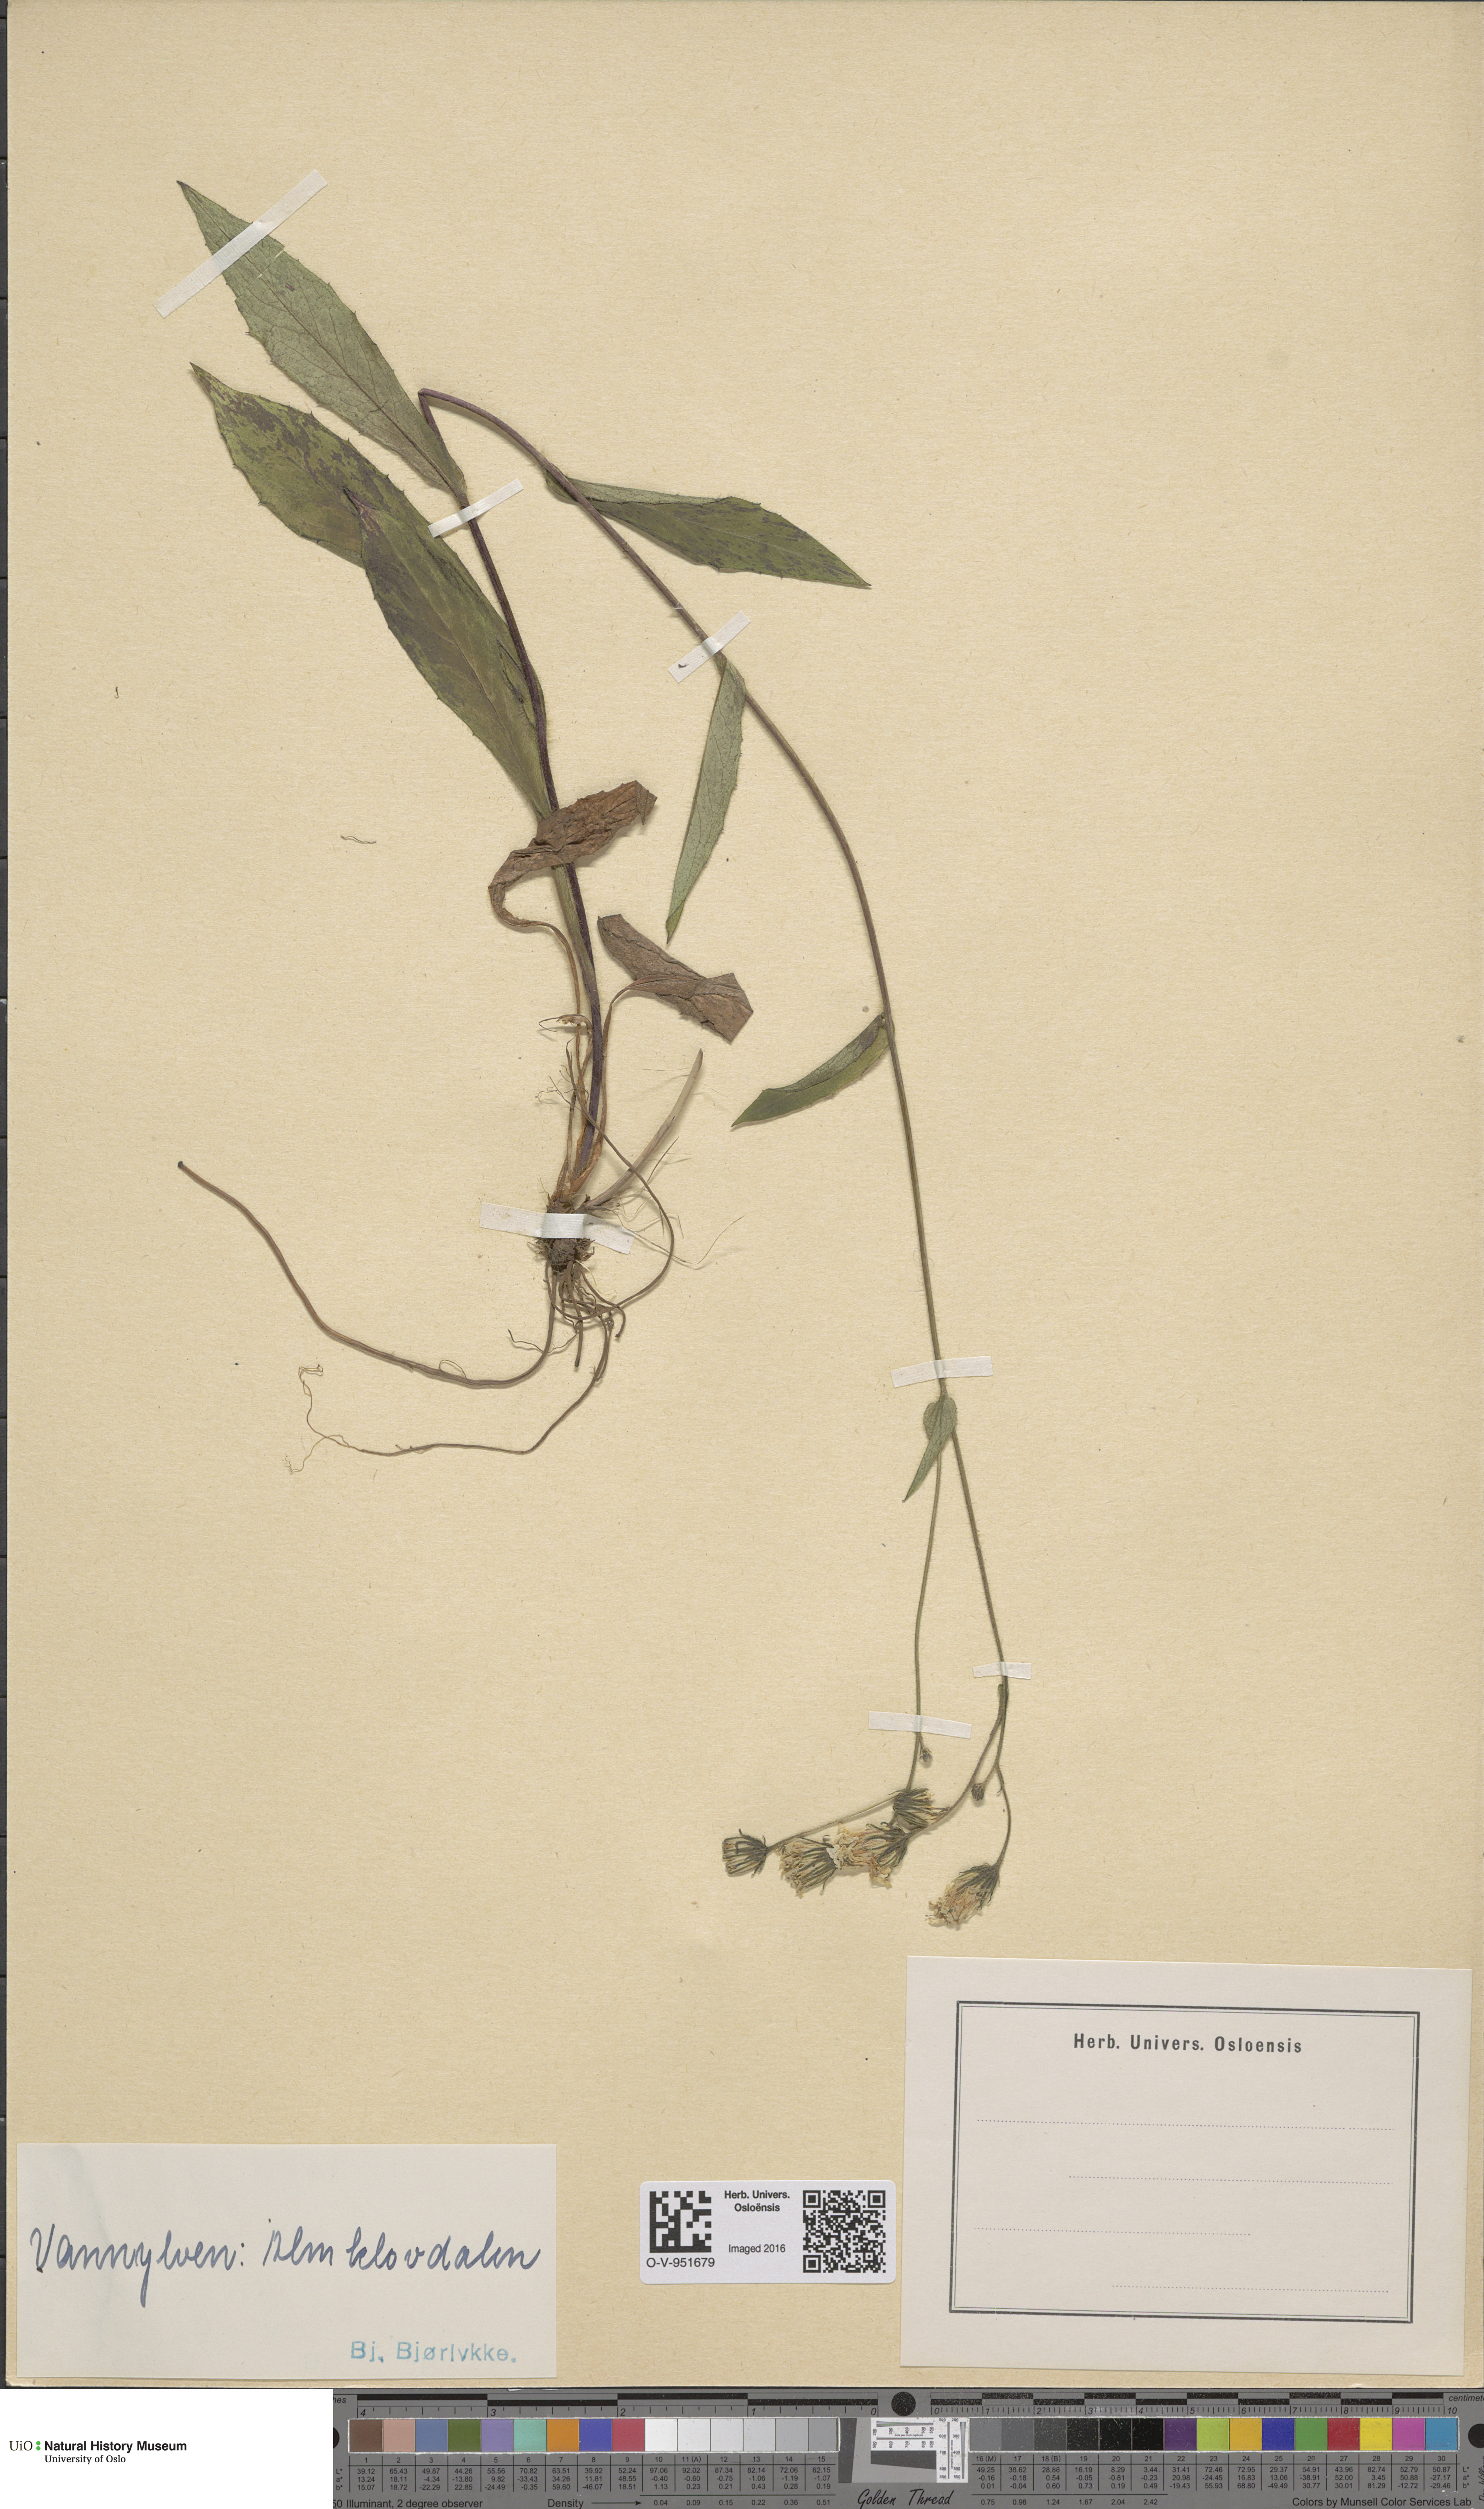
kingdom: Plantae
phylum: Tracheophyta
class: Magnoliopsida
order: Asterales
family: Asteraceae
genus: Hieracium
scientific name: Hieracium
